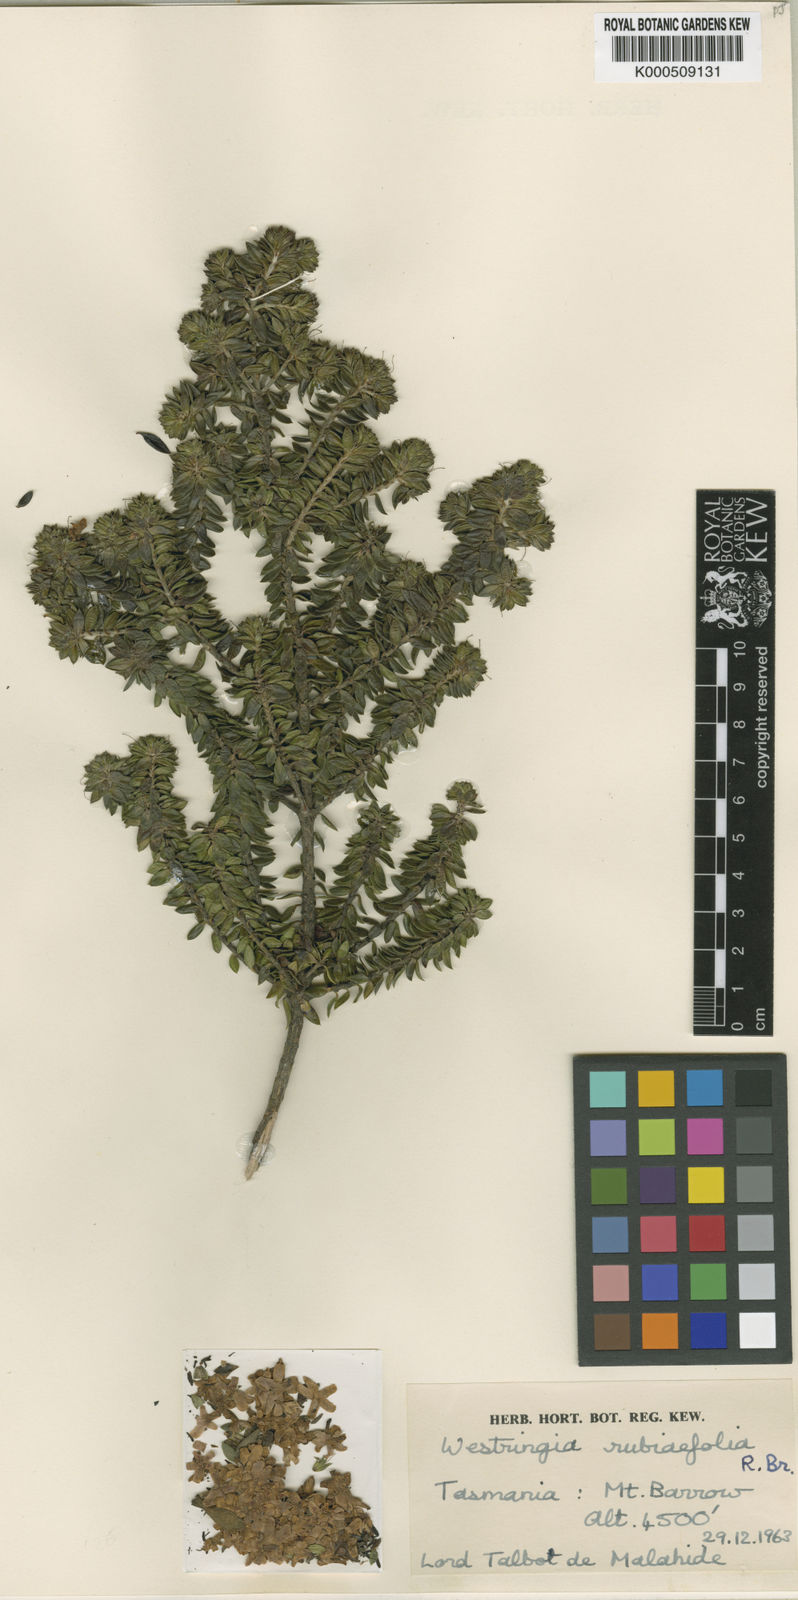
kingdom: Plantae
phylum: Tracheophyta
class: Magnoliopsida
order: Lamiales
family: Lamiaceae
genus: Westringia
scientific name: Westringia rubiifolia
